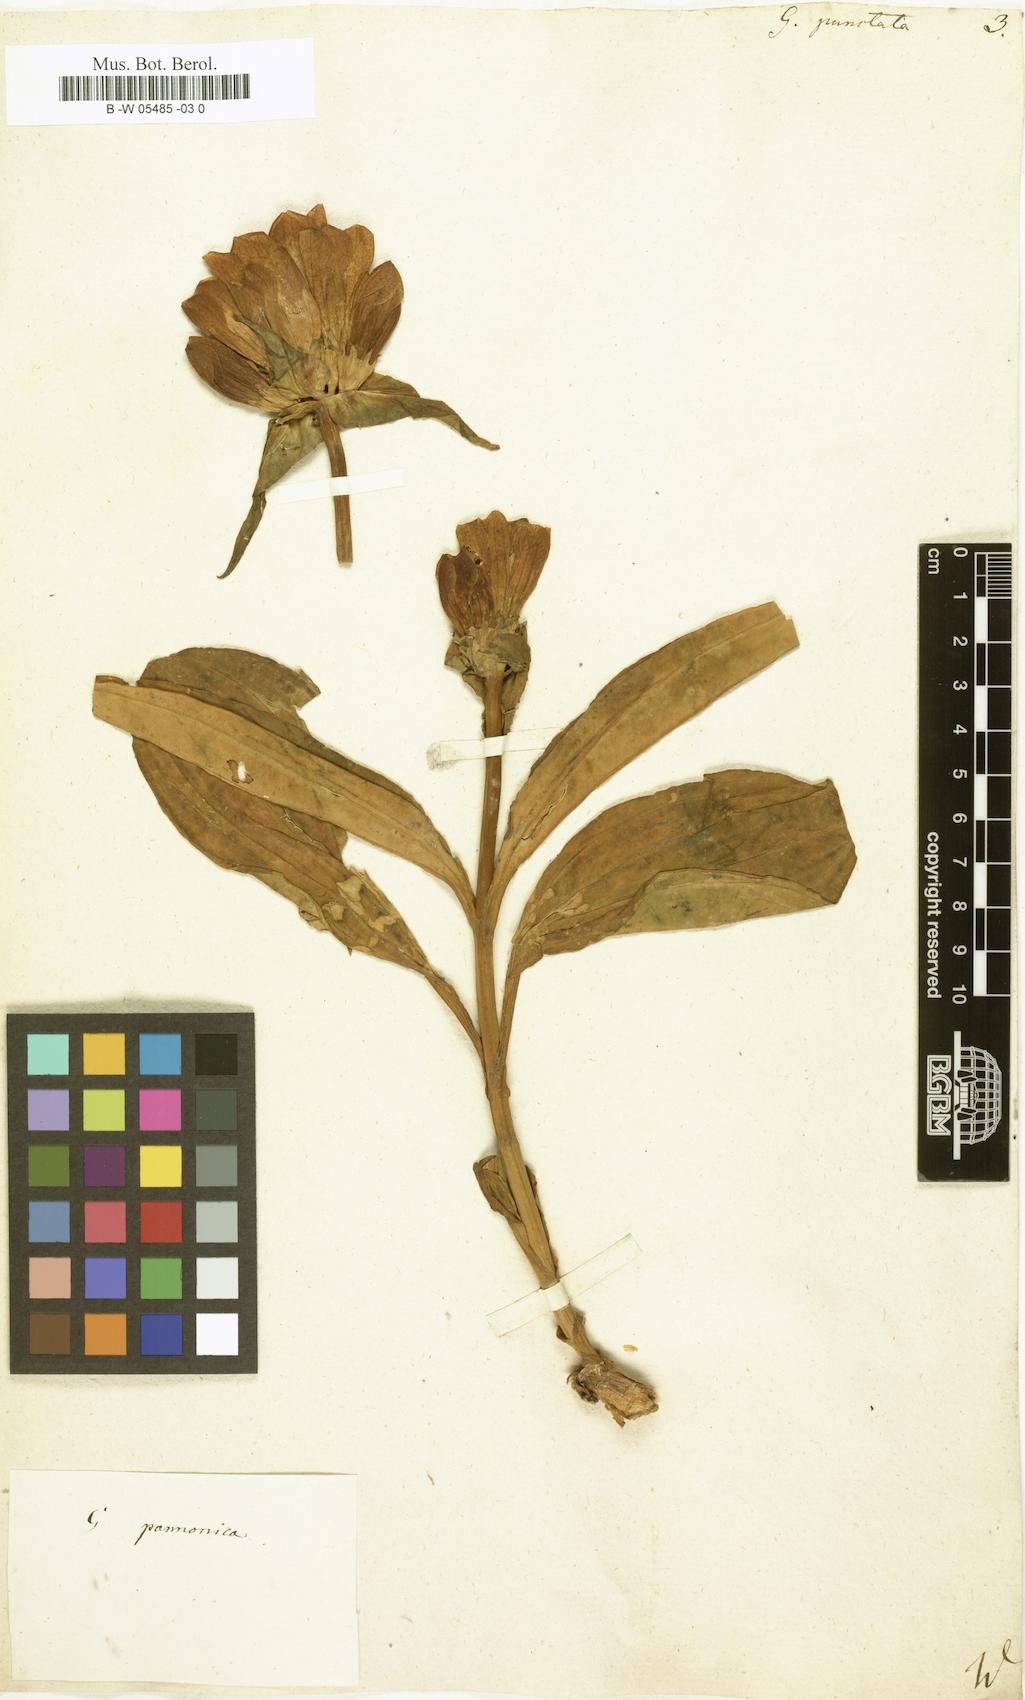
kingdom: Plantae
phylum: Tracheophyta
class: Magnoliopsida
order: Gentianales
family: Gentianaceae
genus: Gentiana
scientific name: Gentiana punctata
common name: Spotted gentian
